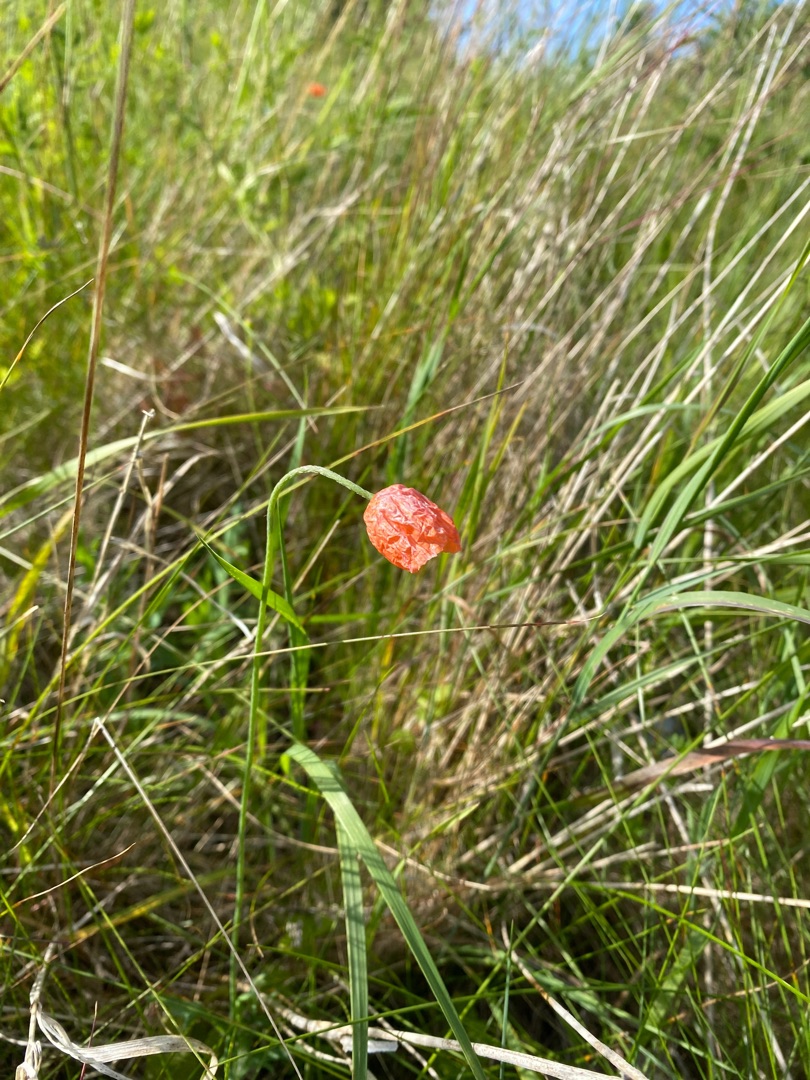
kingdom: Plantae
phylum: Tracheophyta
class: Magnoliopsida
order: Ranunculales
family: Papaveraceae
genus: Papaver
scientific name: Papaver dubium
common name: Gærde-valmue
